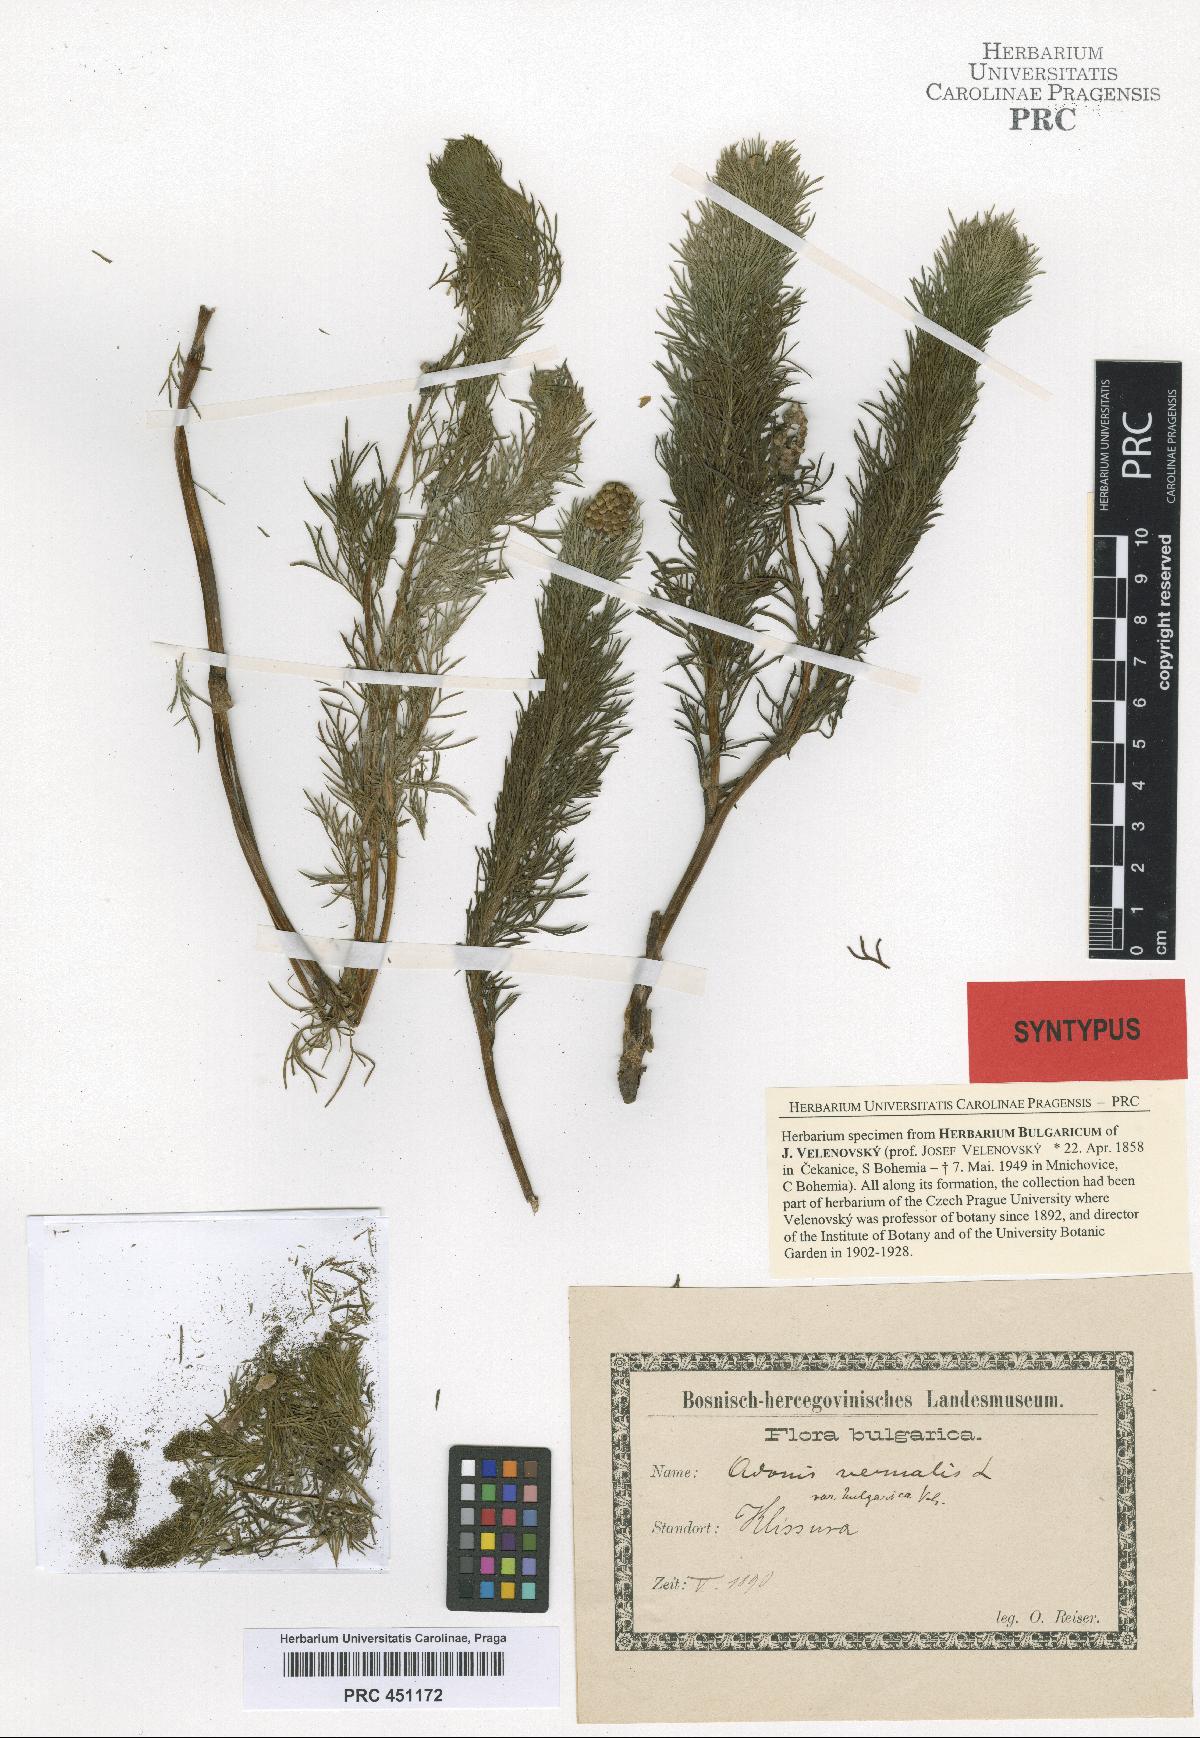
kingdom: Plantae
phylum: Tracheophyta
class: Magnoliopsida
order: Ranunculales
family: Ranunculaceae
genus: Adonis
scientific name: Adonis vernalis
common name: Yellow pheasants-eye
